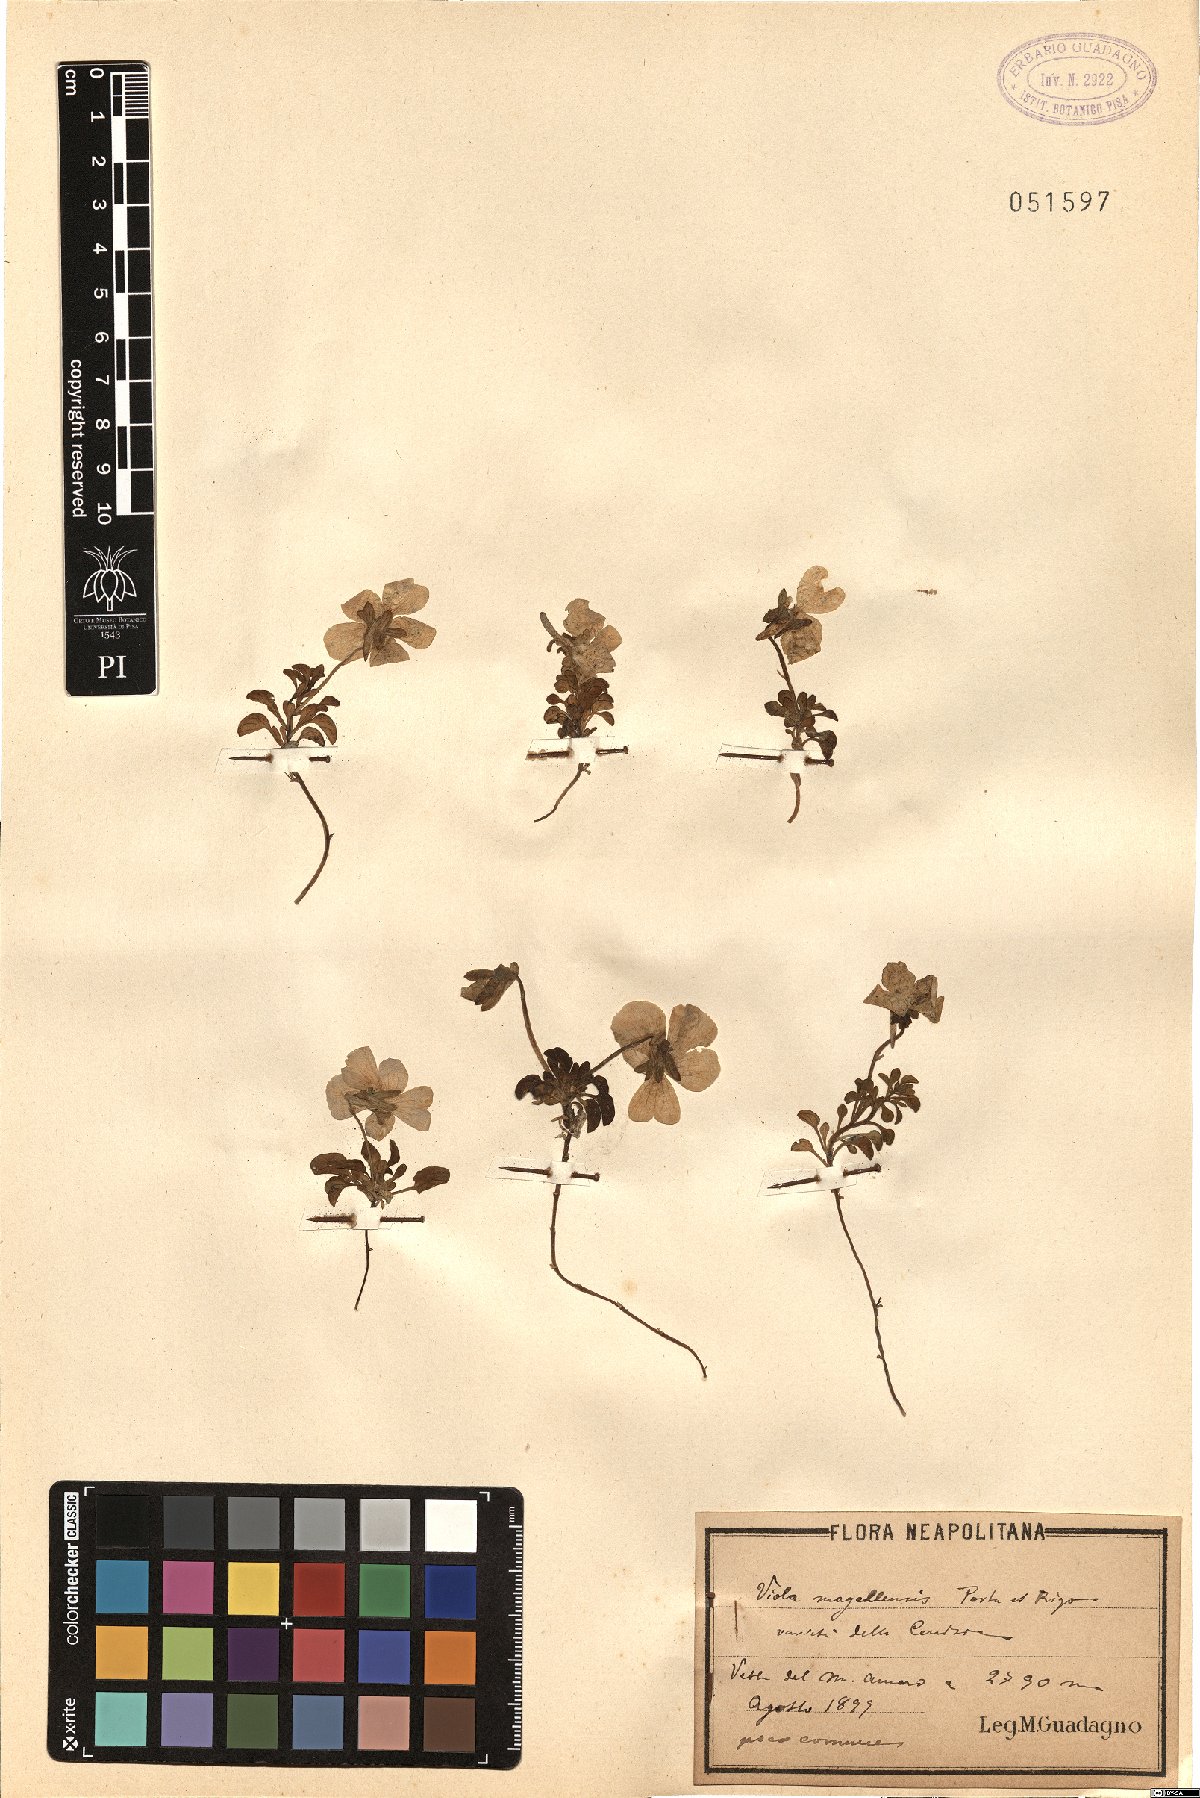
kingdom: Plantae
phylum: Tracheophyta
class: Magnoliopsida
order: Malpighiales
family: Violaceae
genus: Viola
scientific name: Viola cenisia
